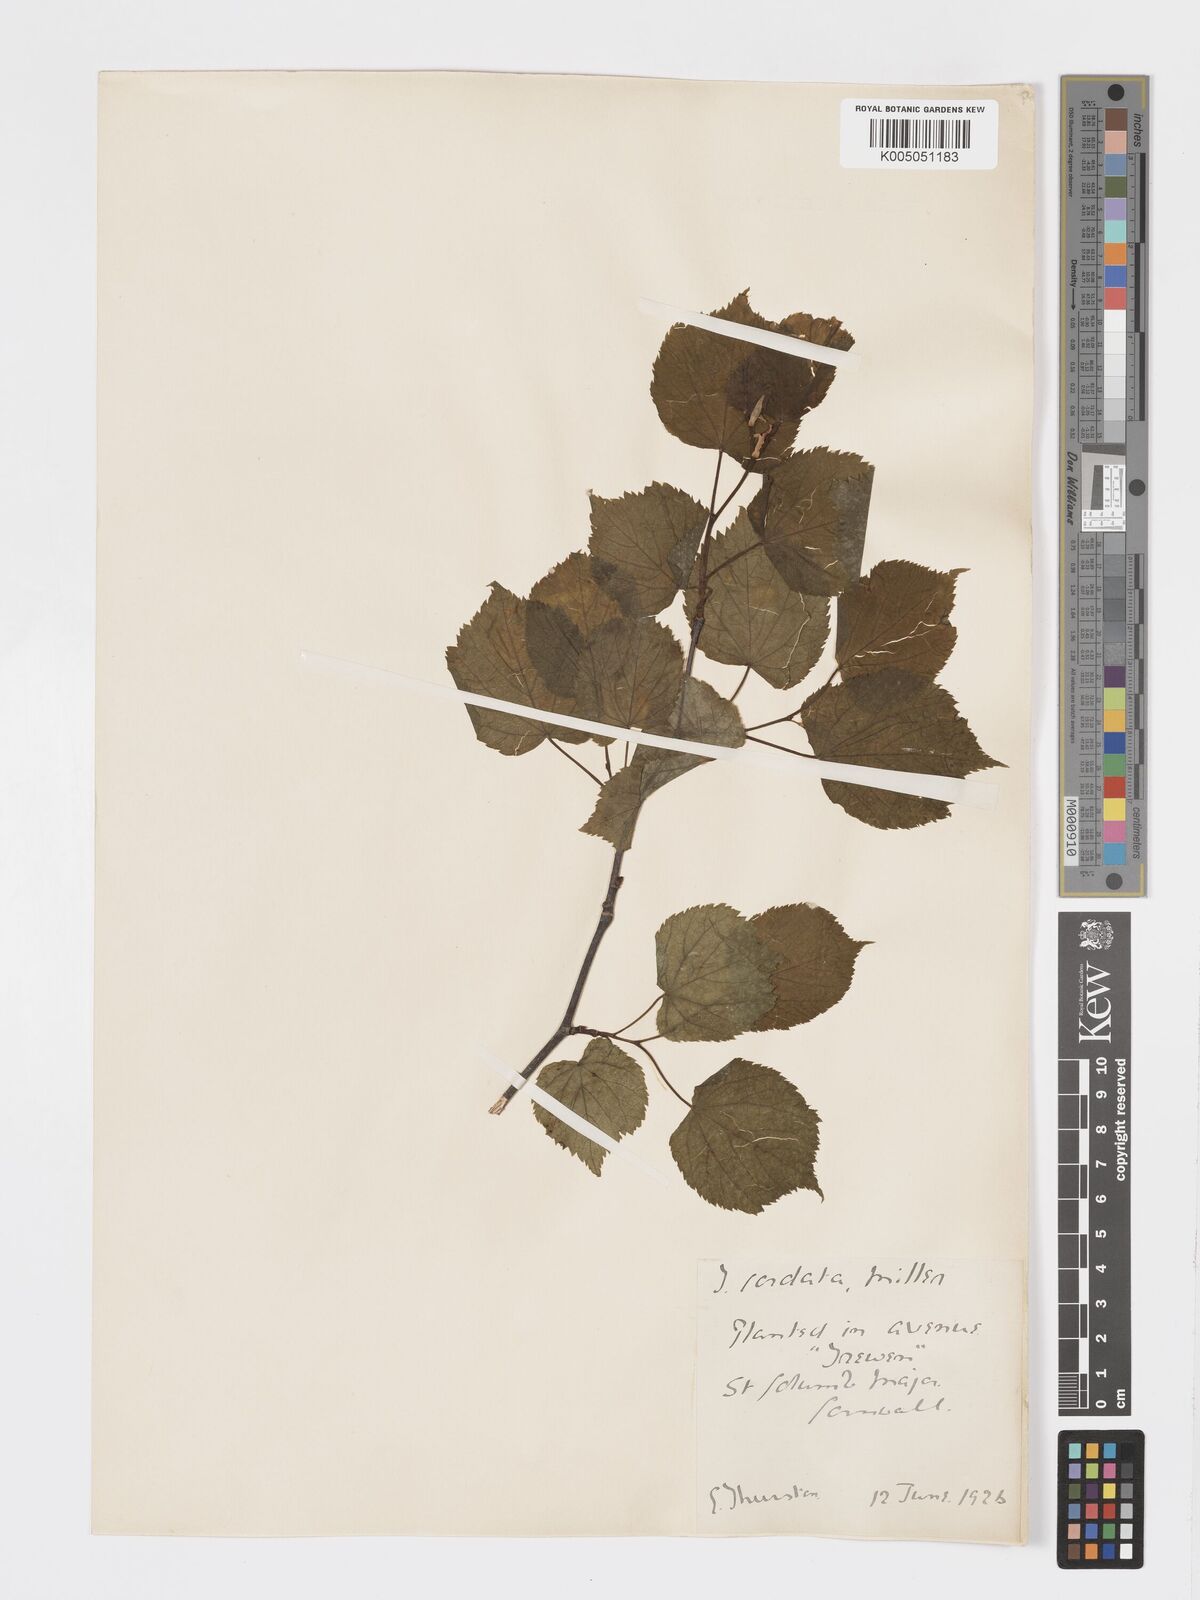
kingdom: Plantae
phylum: Tracheophyta
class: Magnoliopsida
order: Malvales
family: Malvaceae
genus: Tilia
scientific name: Tilia cordata
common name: Small-leaved lime
